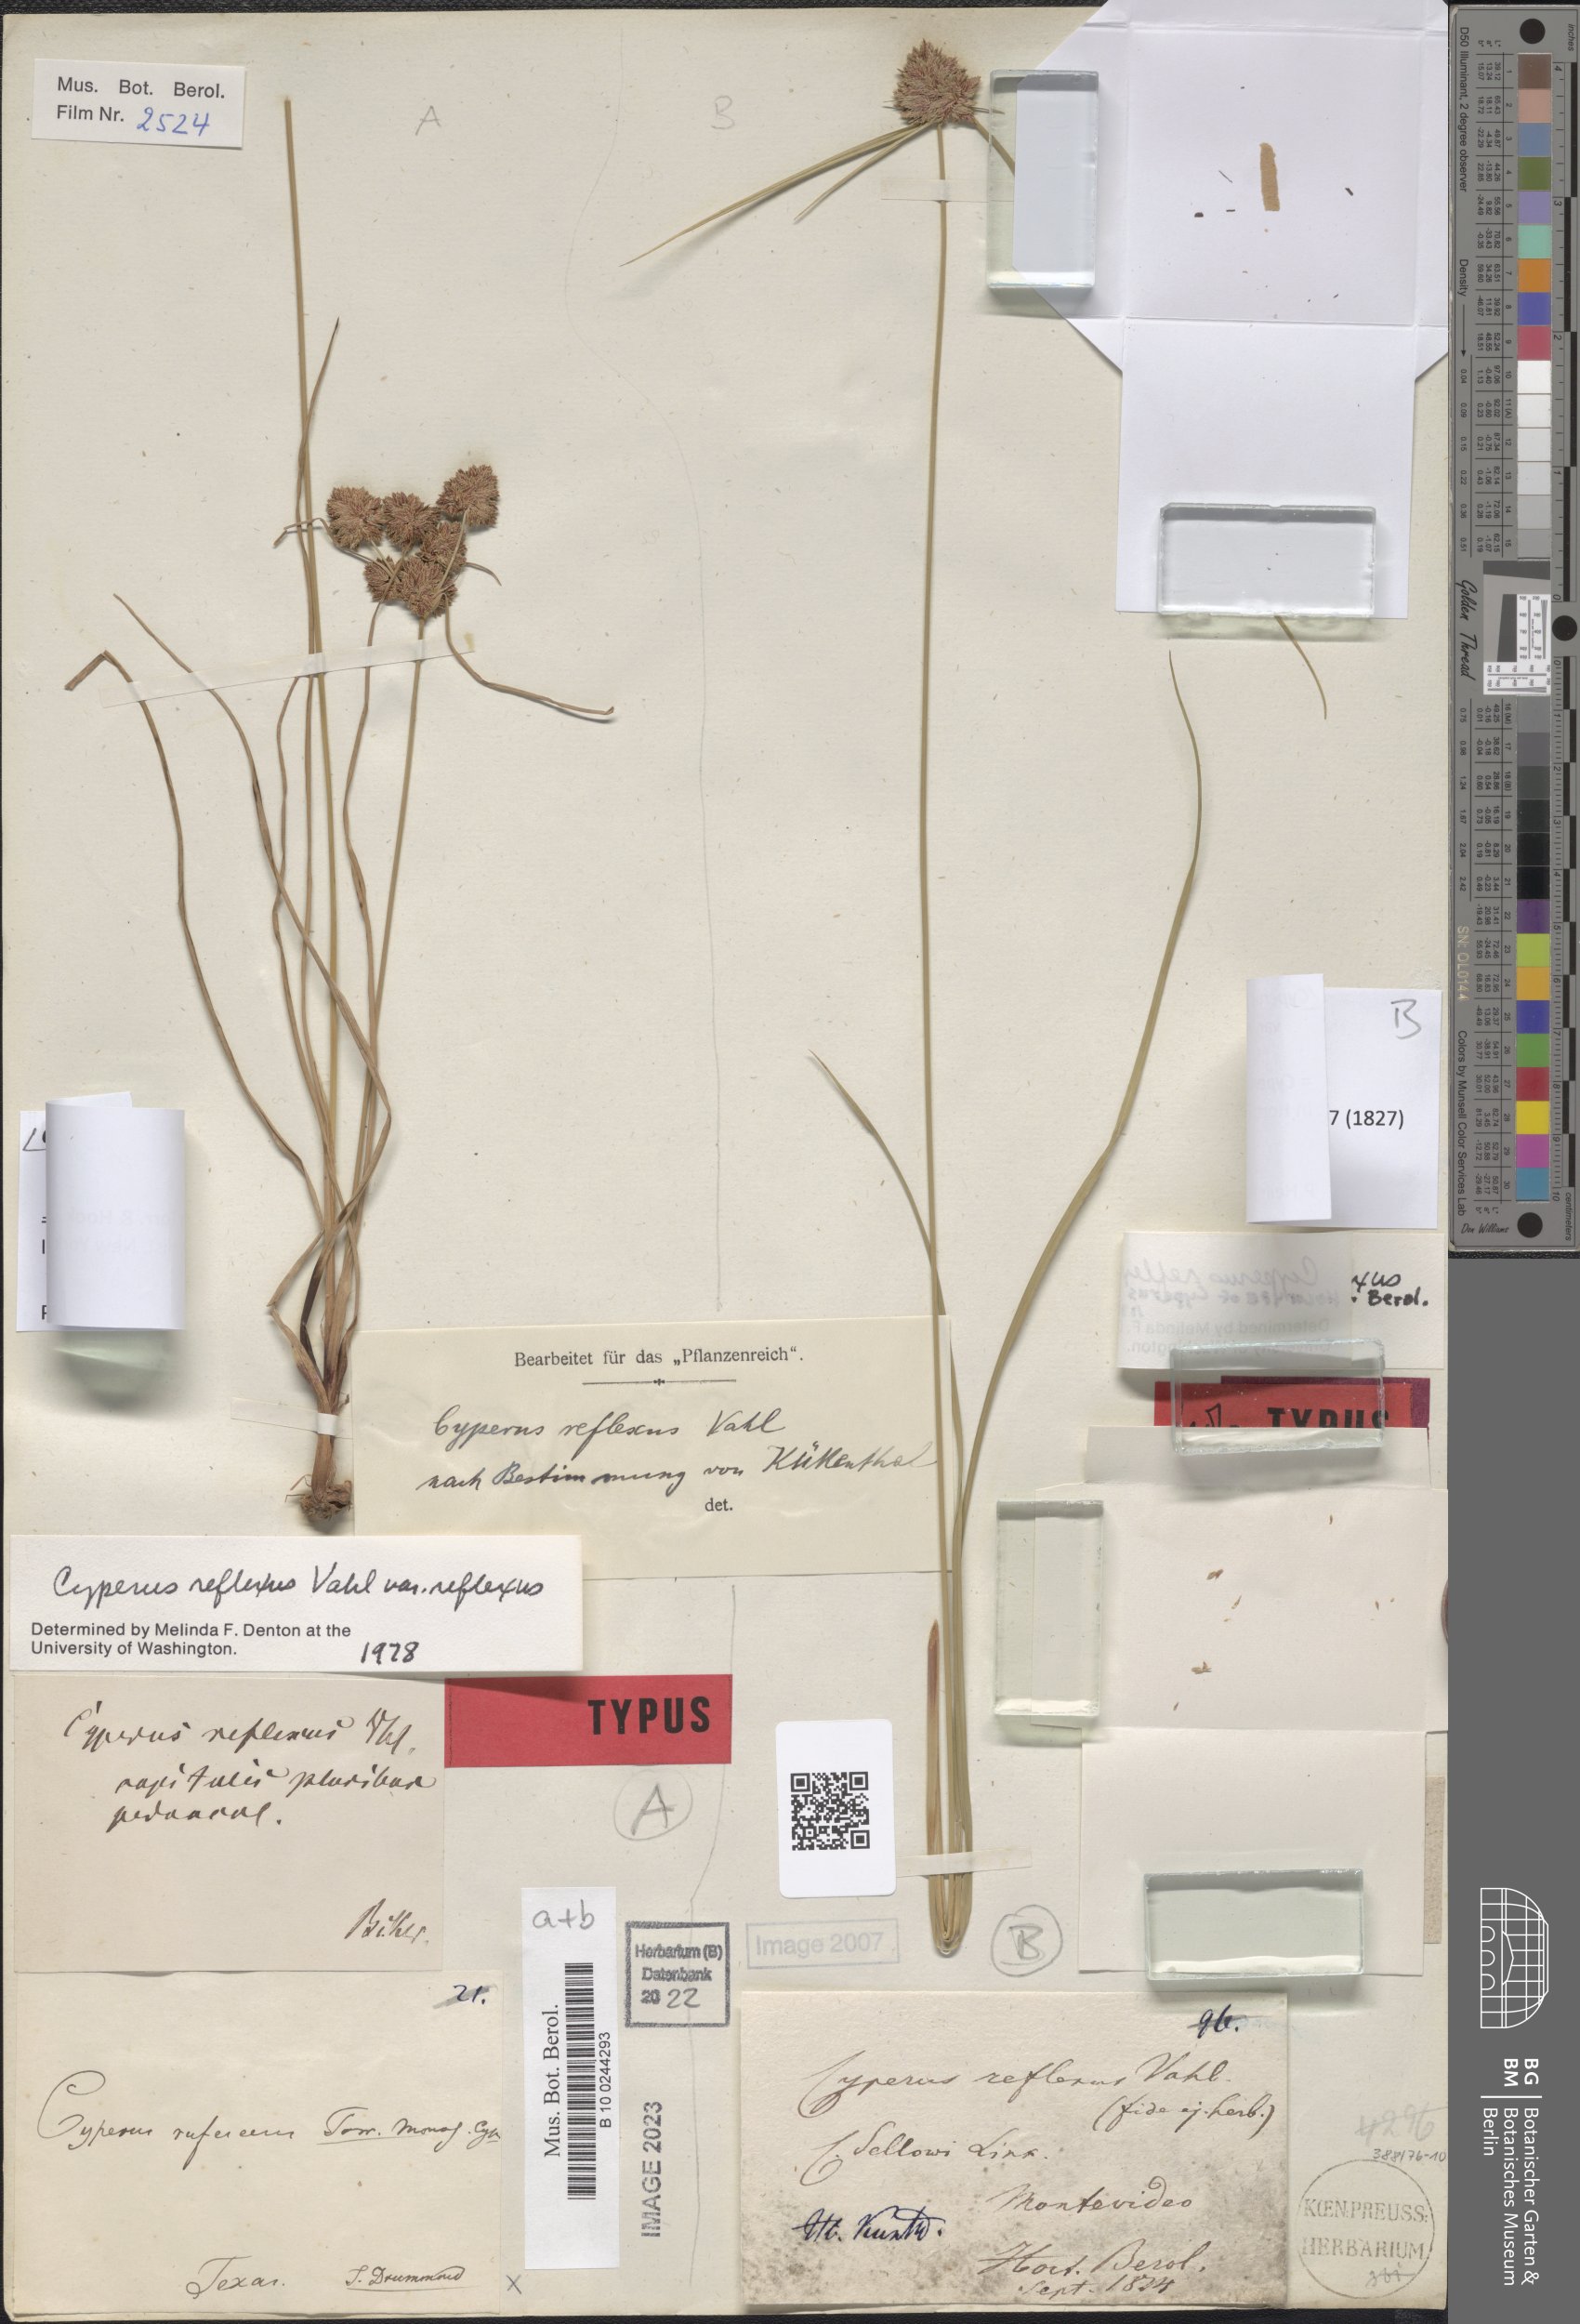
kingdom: Plantae
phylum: Tracheophyta
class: Liliopsida
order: Poales
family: Cyperaceae
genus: Cyperus
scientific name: Cyperus reflexus
